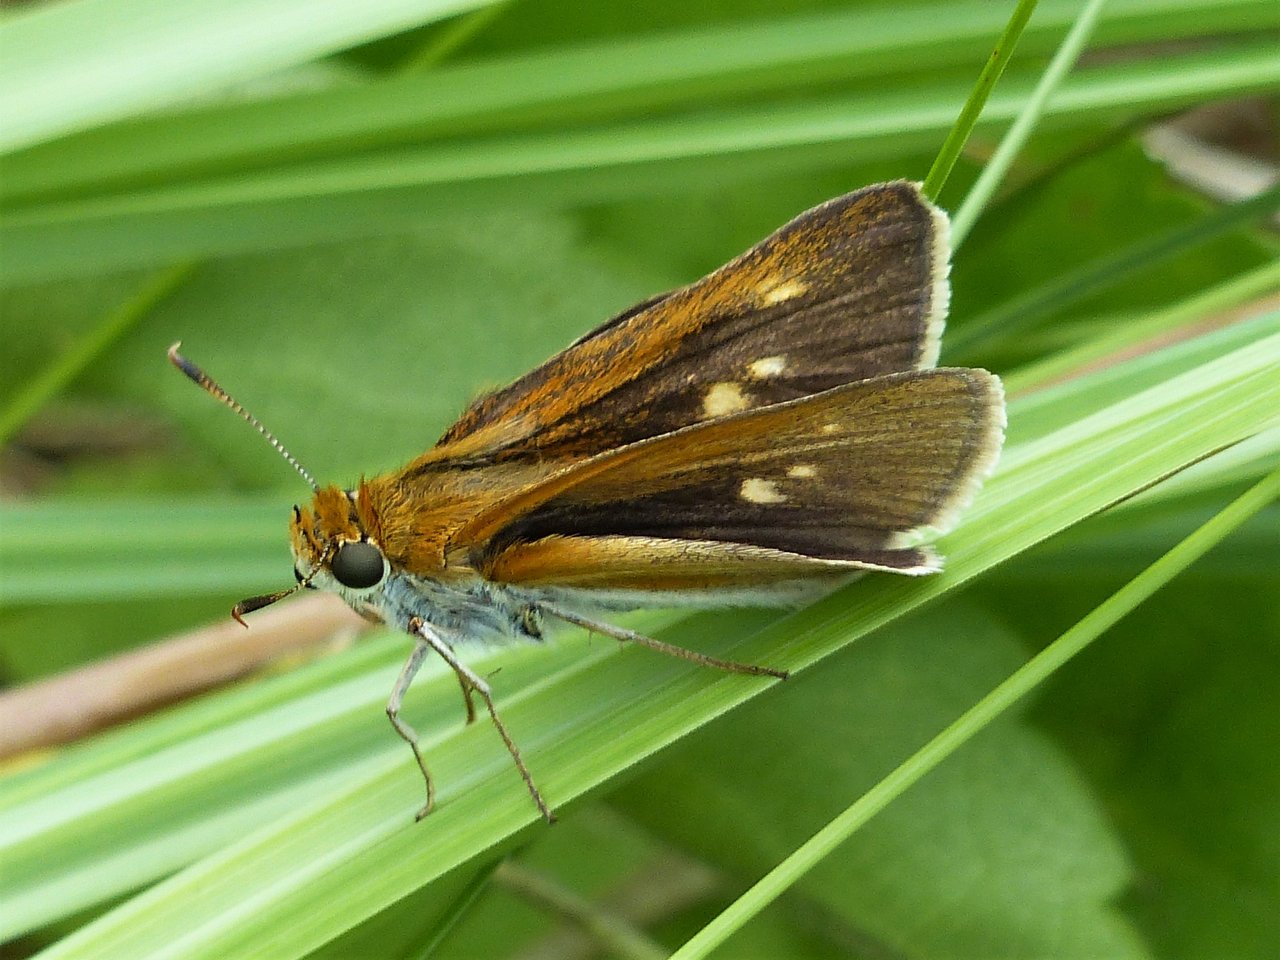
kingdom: Animalia
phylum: Arthropoda
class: Insecta
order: Lepidoptera
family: Hesperiidae
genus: Euphyes
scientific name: Euphyes bimacula
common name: Two-spotted Skipper
